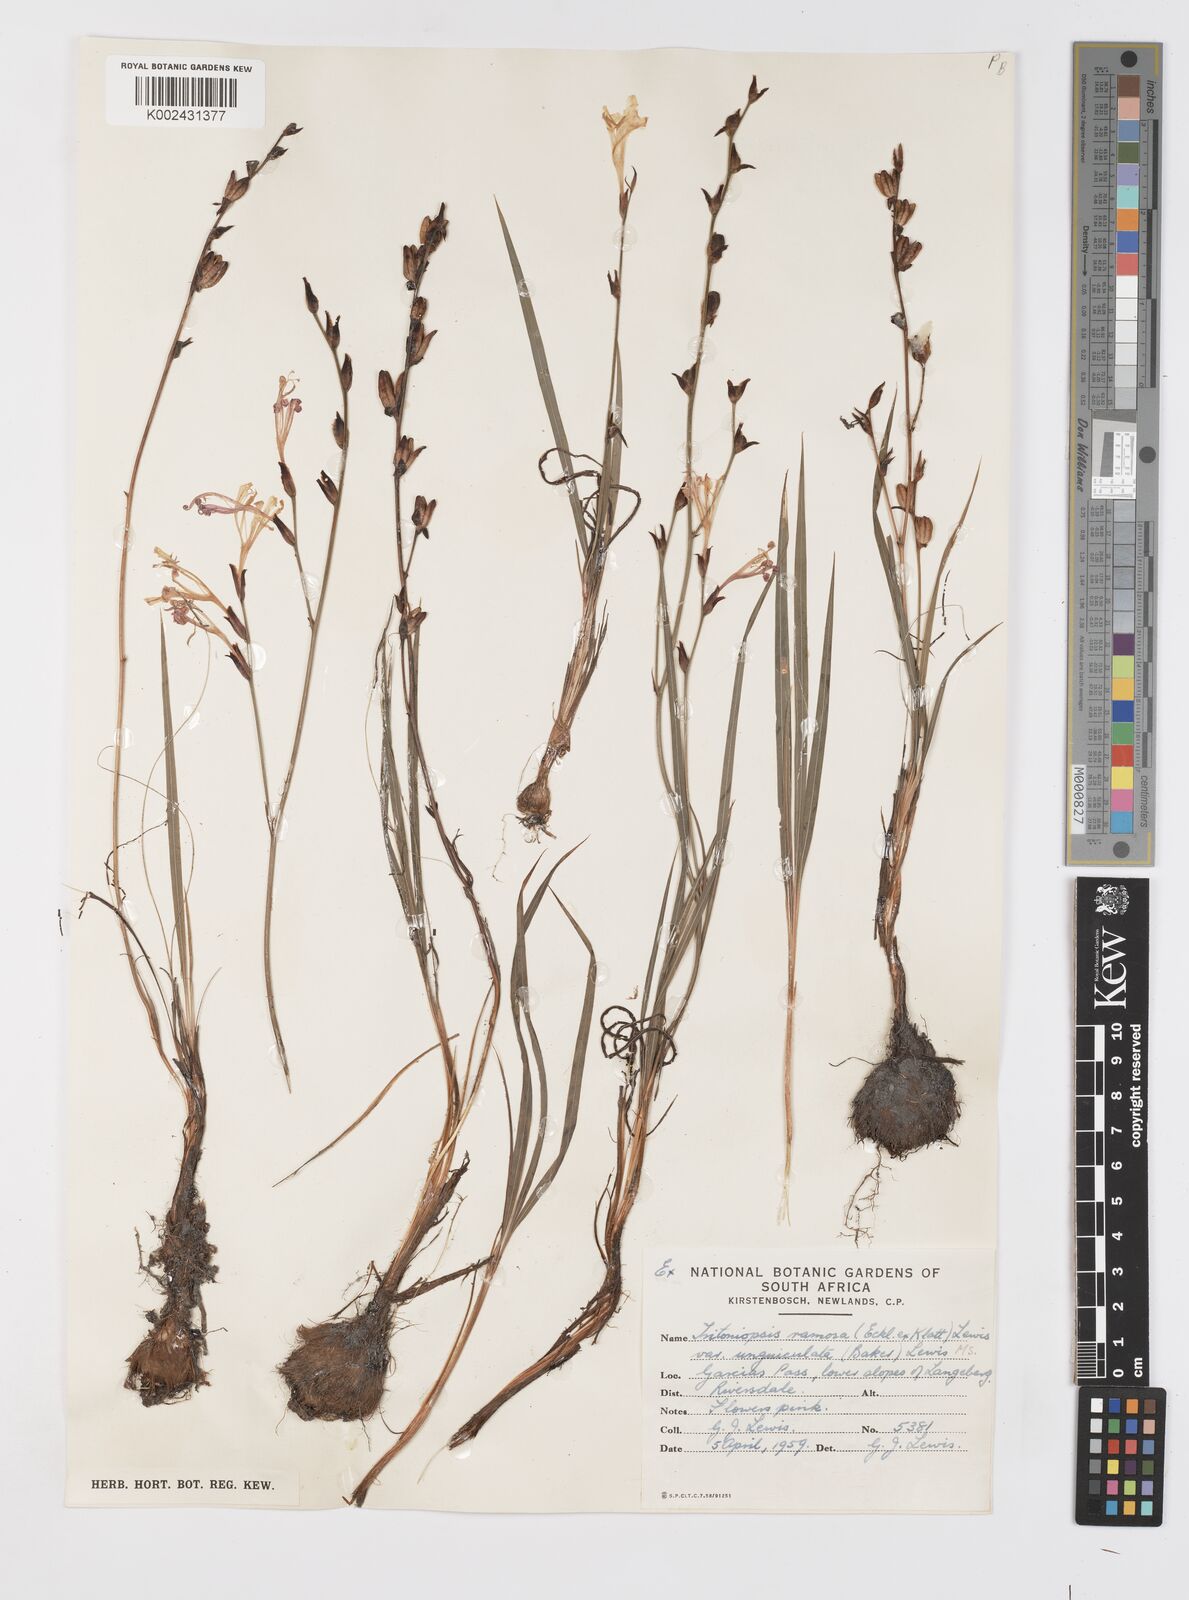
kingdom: Plantae
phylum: Tracheophyta
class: Liliopsida
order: Asparagales
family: Iridaceae
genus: Tritoniopsis
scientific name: Tritoniopsis ramosa
